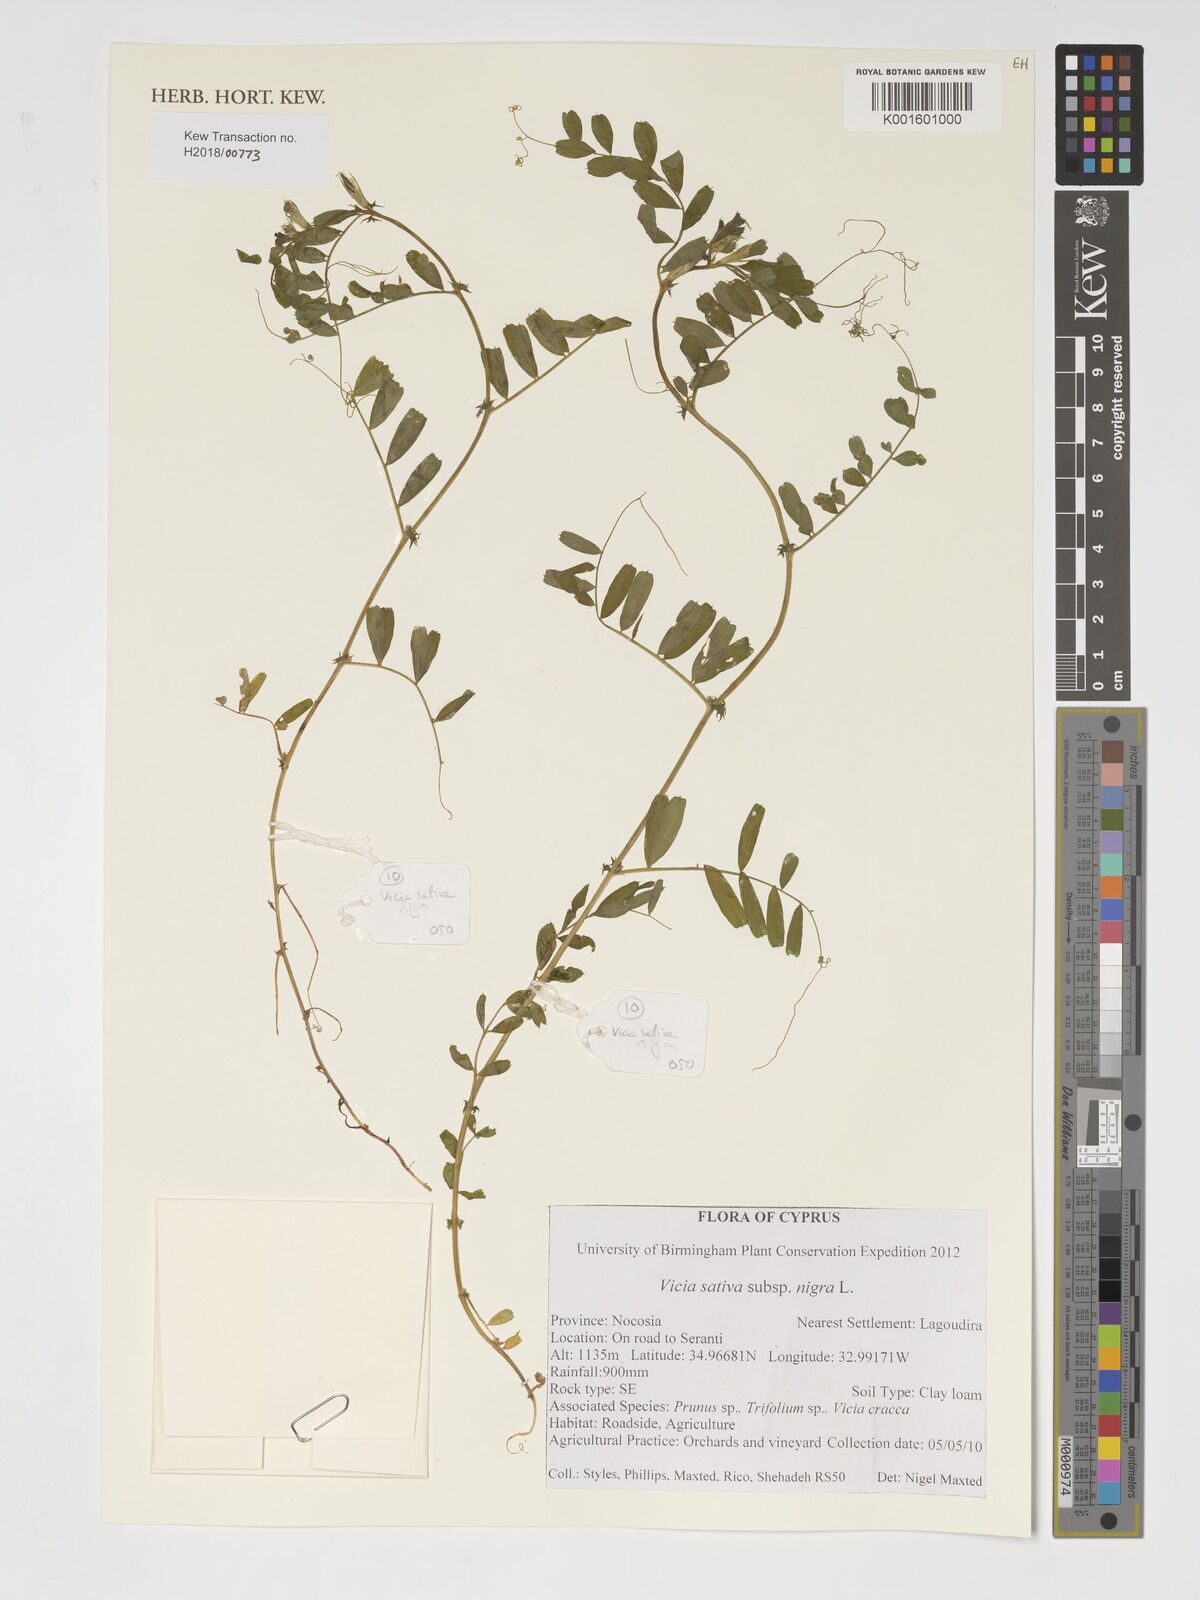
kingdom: Plantae
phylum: Tracheophyta
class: Magnoliopsida
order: Fabales
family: Fabaceae
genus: Vicia
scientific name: Vicia sativa
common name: Garden vetch
